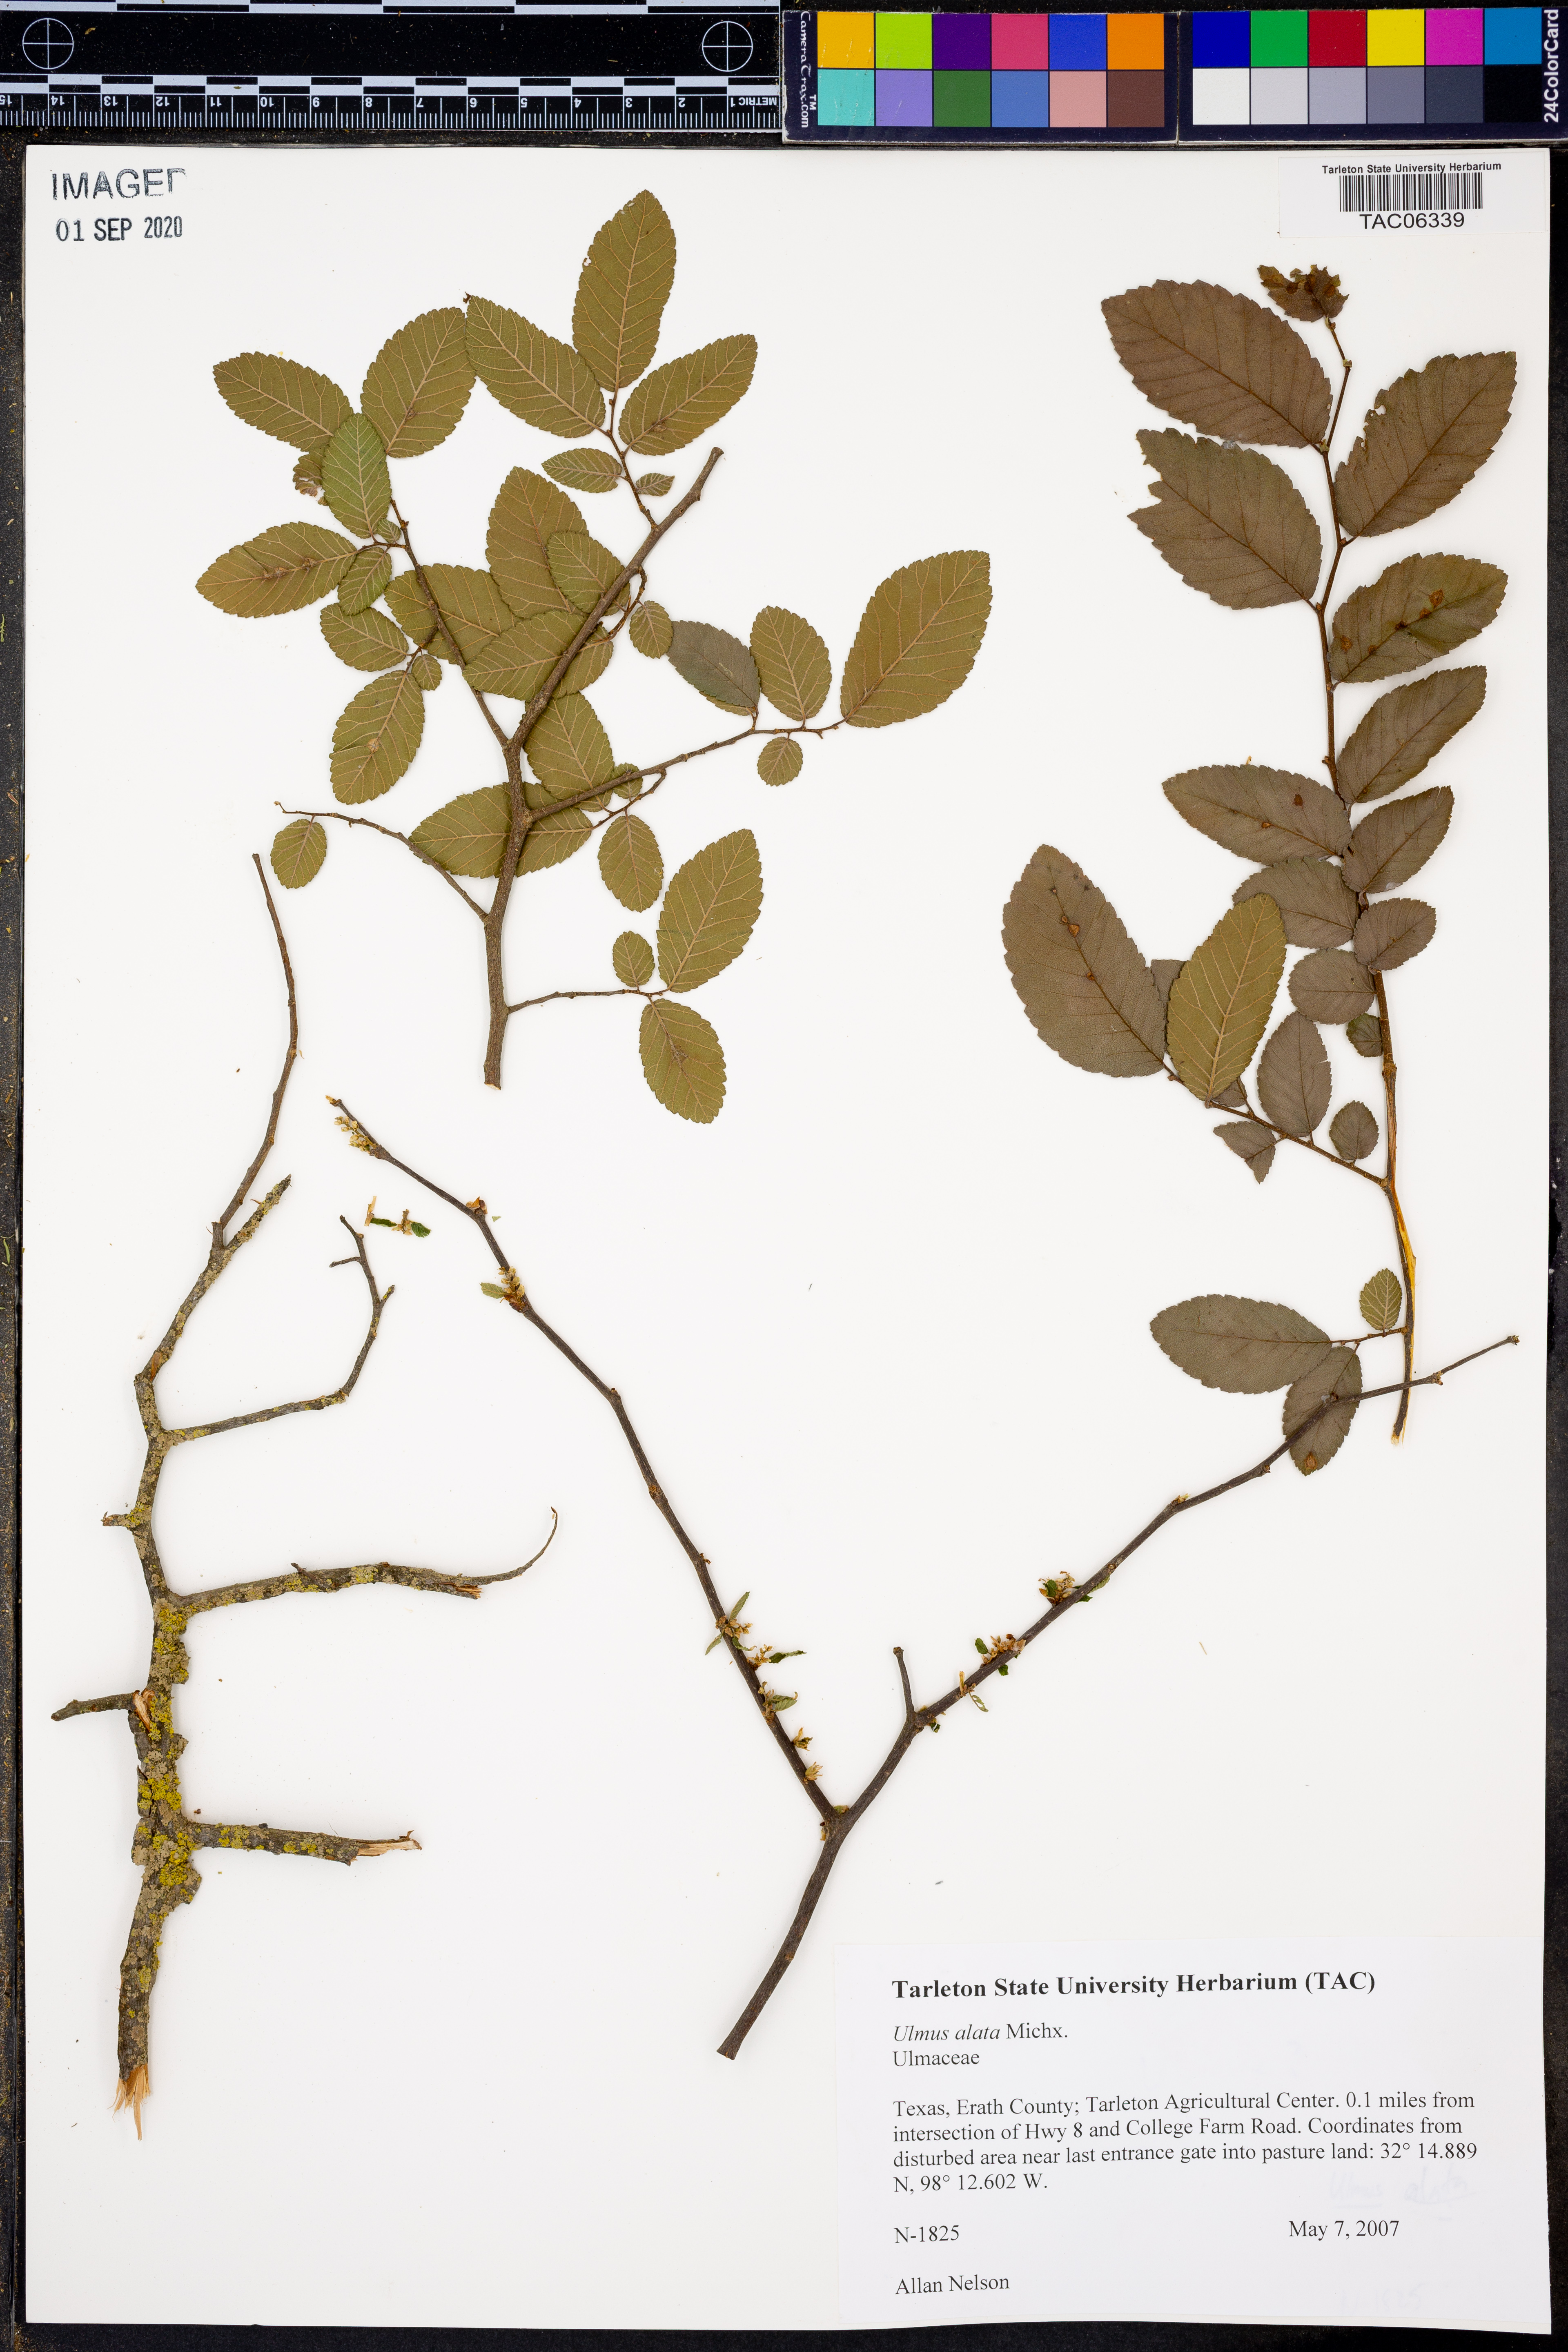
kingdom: Plantae
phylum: Tracheophyta
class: Magnoliopsida
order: Rosales
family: Ulmaceae
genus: Ulmus
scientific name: Ulmus alata
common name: Winged elm
